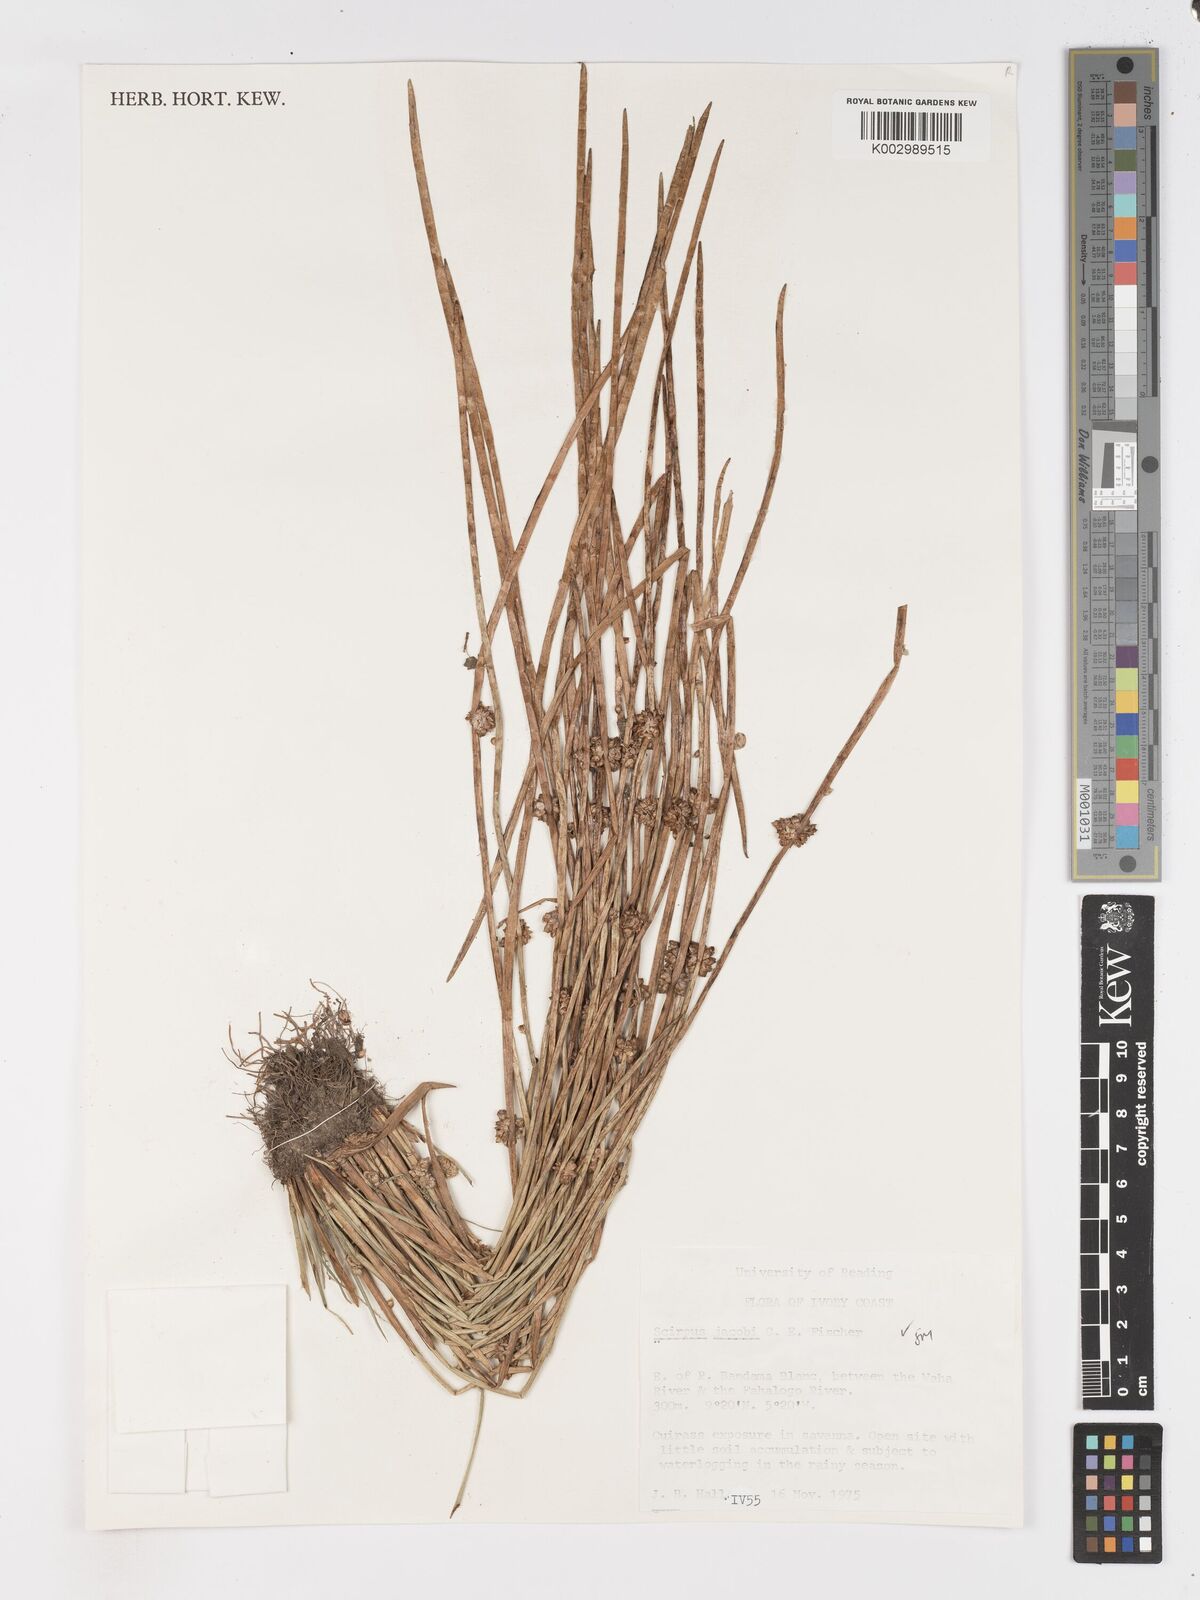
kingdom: Plantae
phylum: Tracheophyta
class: Liliopsida
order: Poales
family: Cyperaceae
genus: Schoenoplectiella
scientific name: Schoenoplectiella senegalensis
